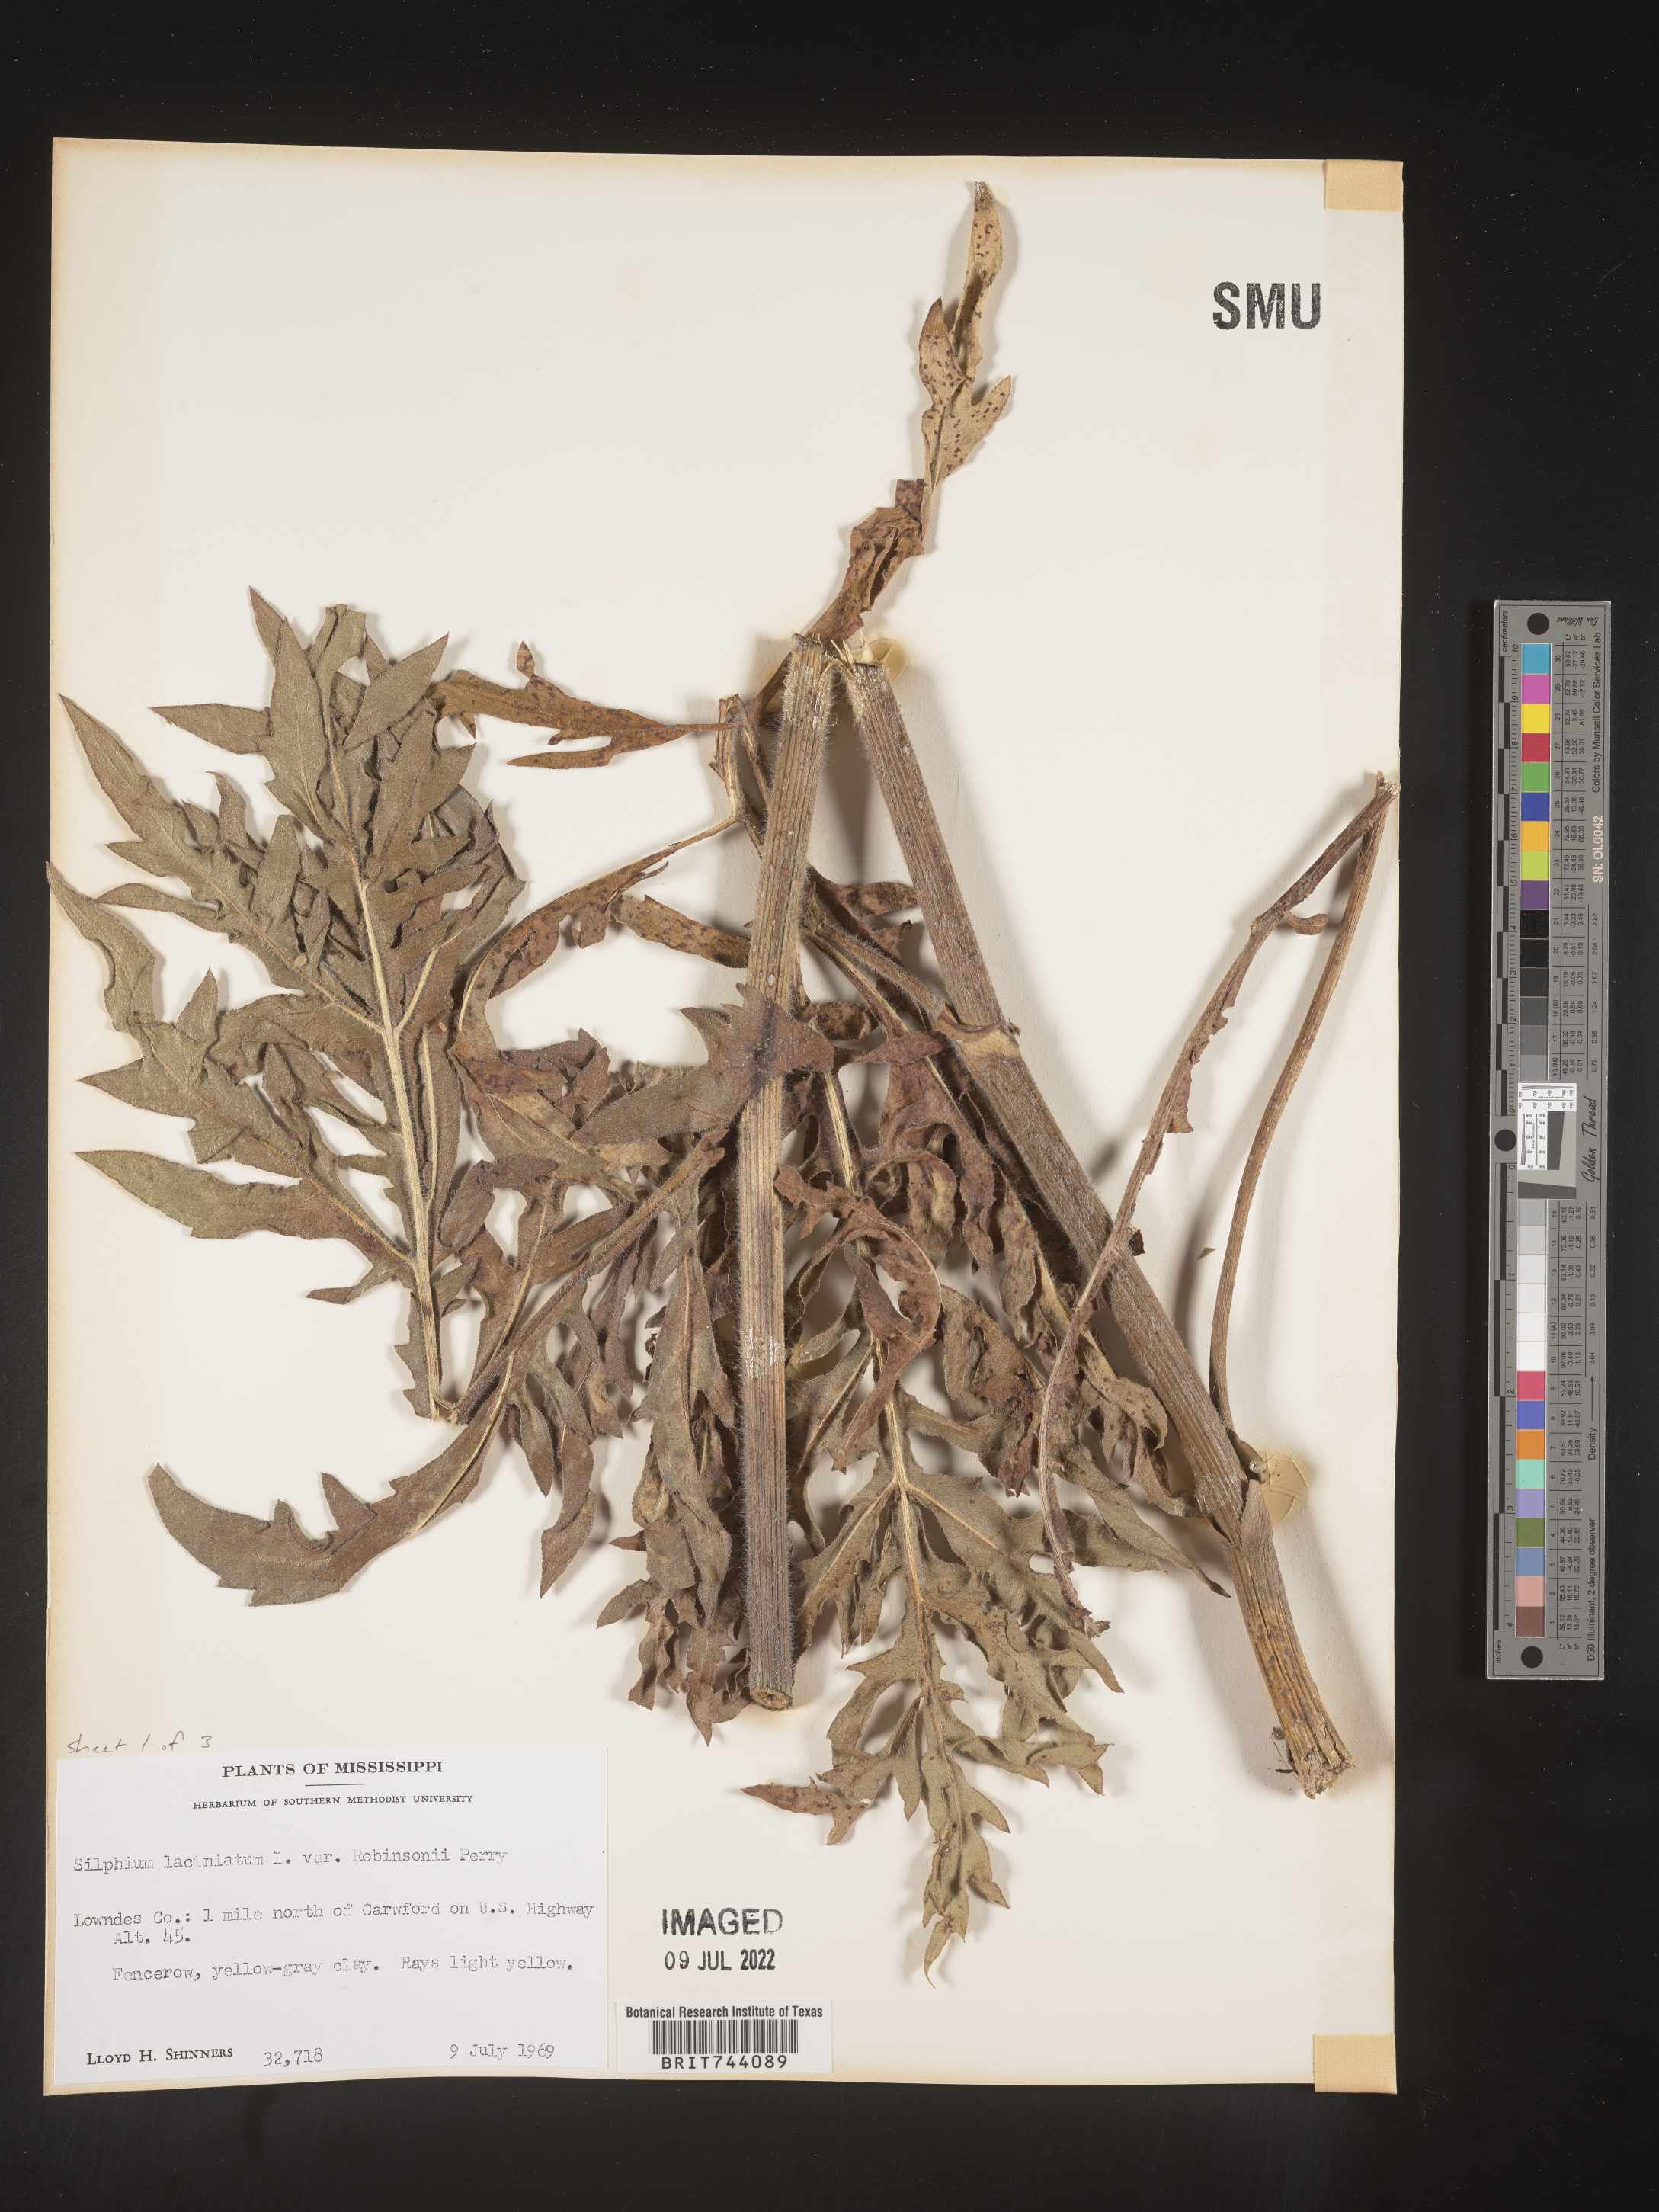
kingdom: Plantae
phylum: Tracheophyta
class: Magnoliopsida
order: Asterales
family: Asteraceae
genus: Silphium
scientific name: Silphium laciniatum
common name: Polarplant
